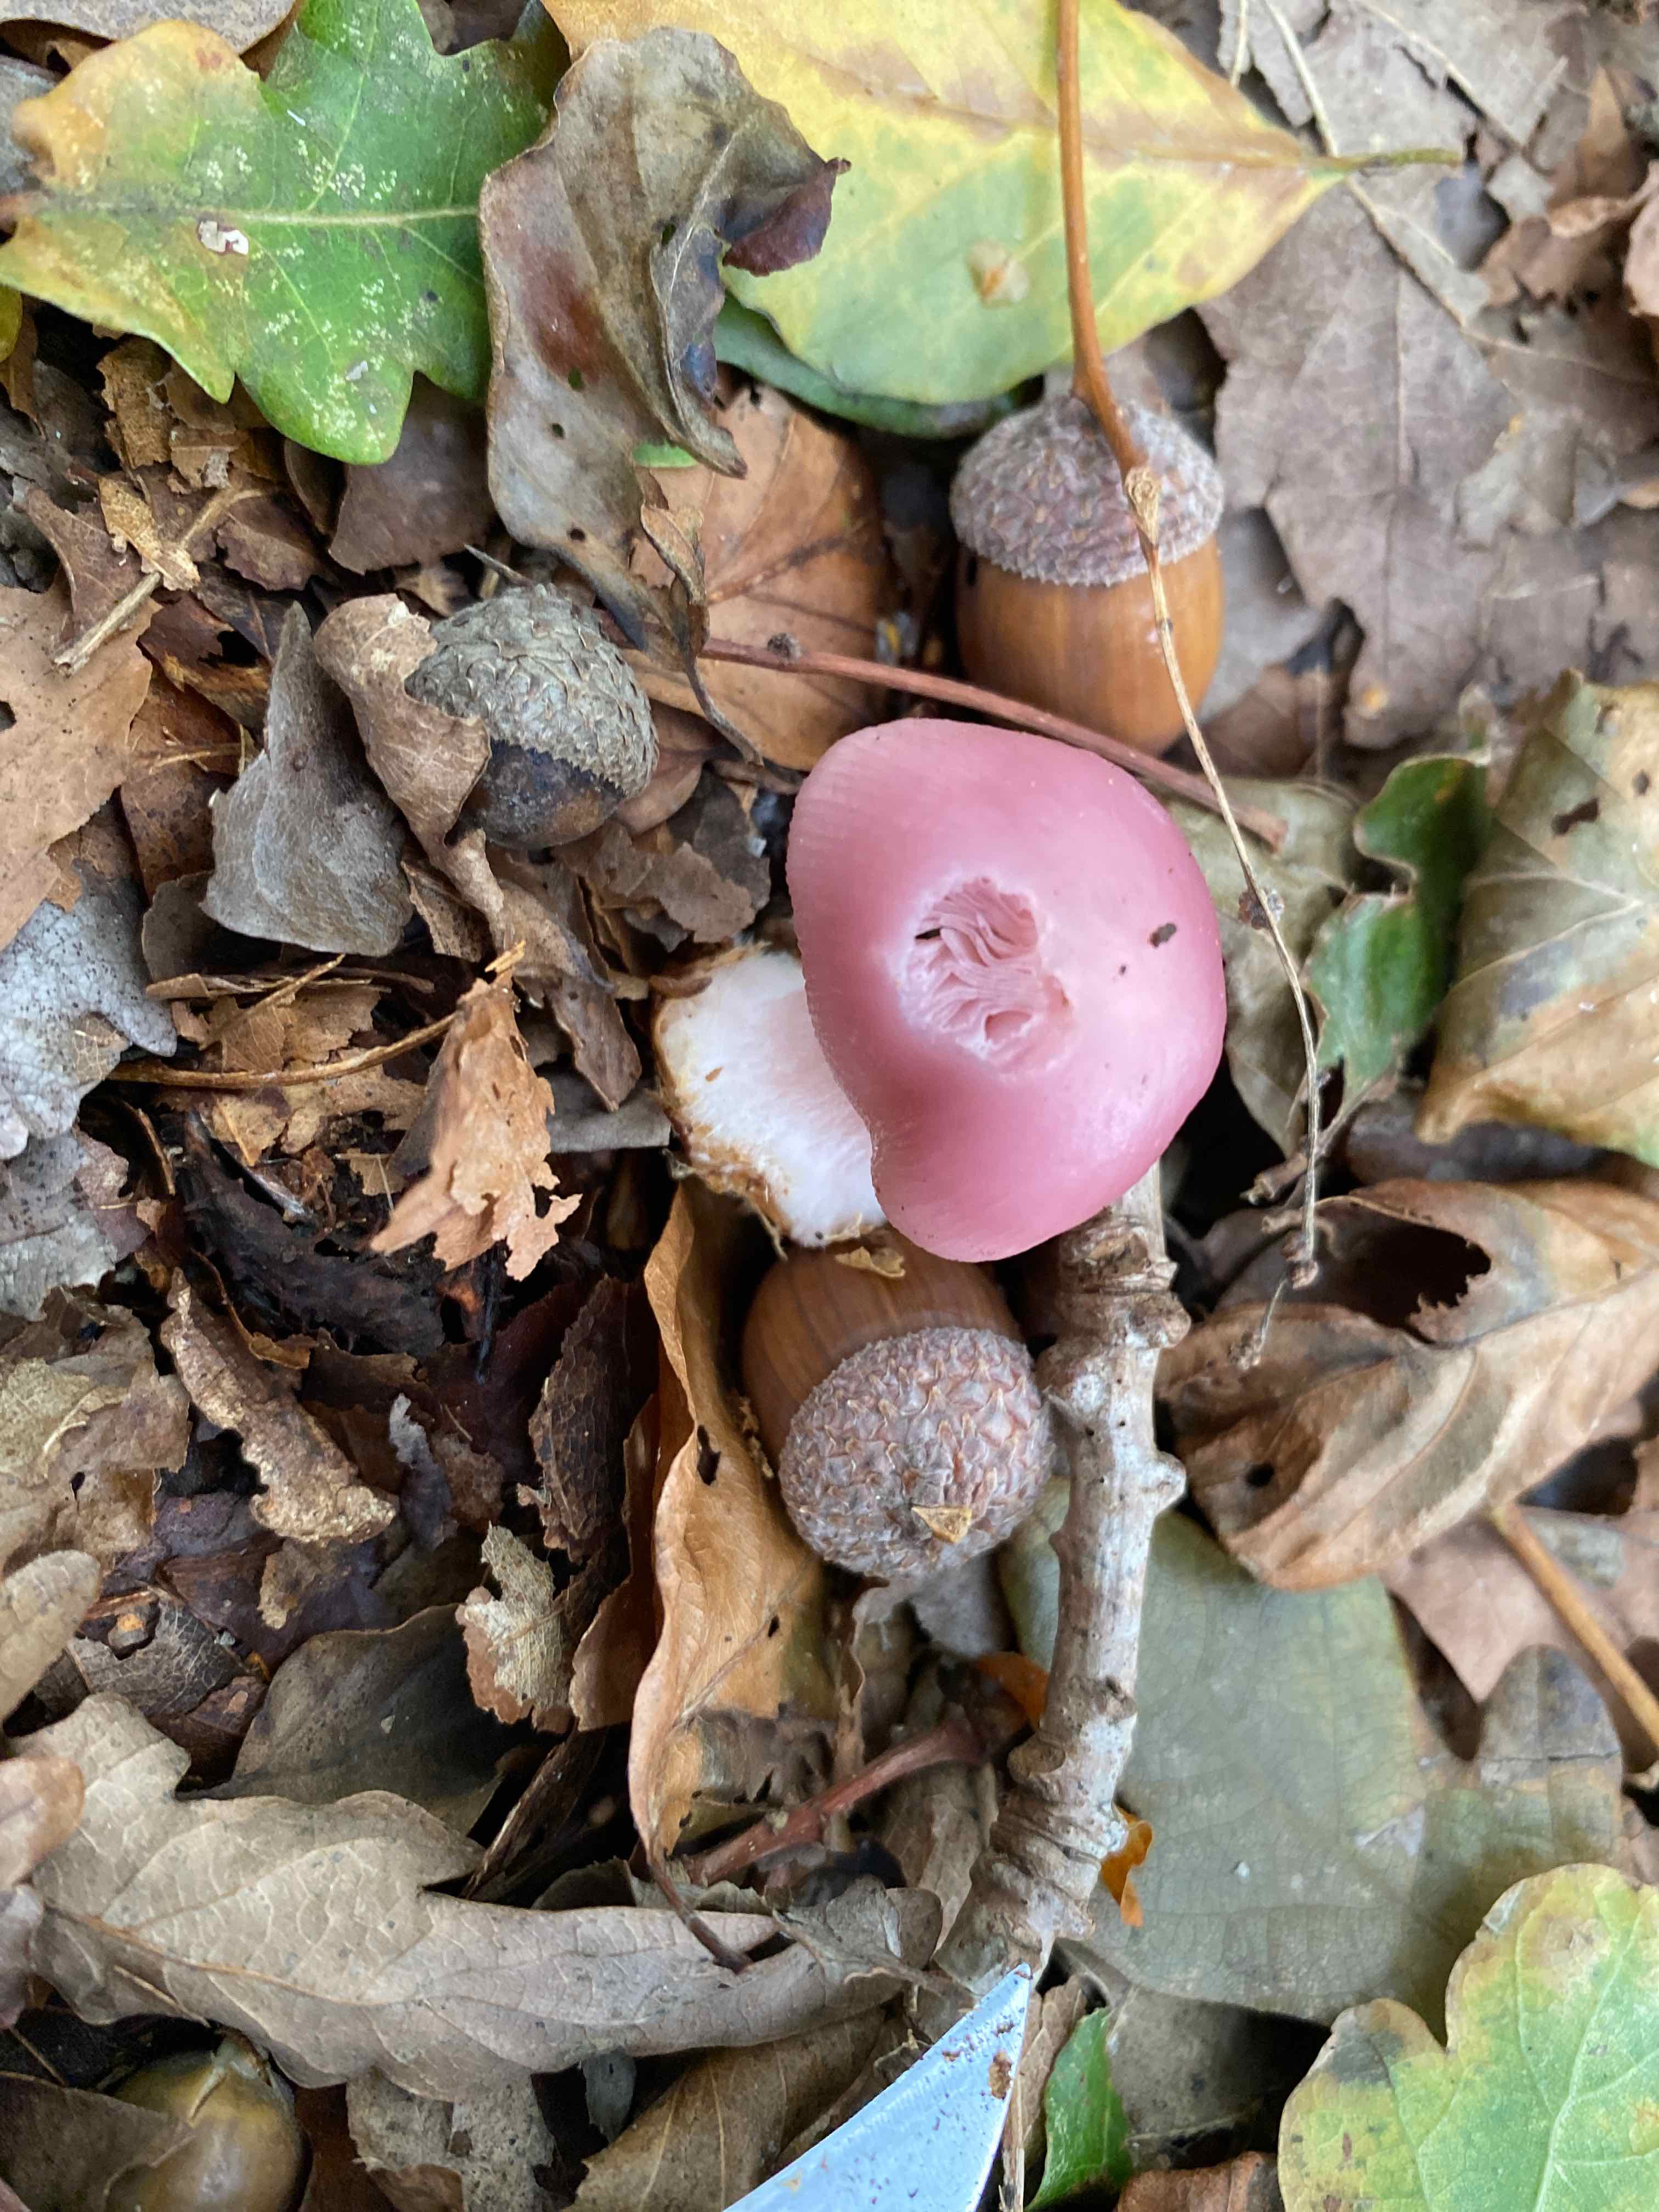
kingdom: Fungi
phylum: Basidiomycota
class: Agaricomycetes
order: Agaricales
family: Mycenaceae
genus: Mycena
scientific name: Mycena rosea
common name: rosa huesvamp
